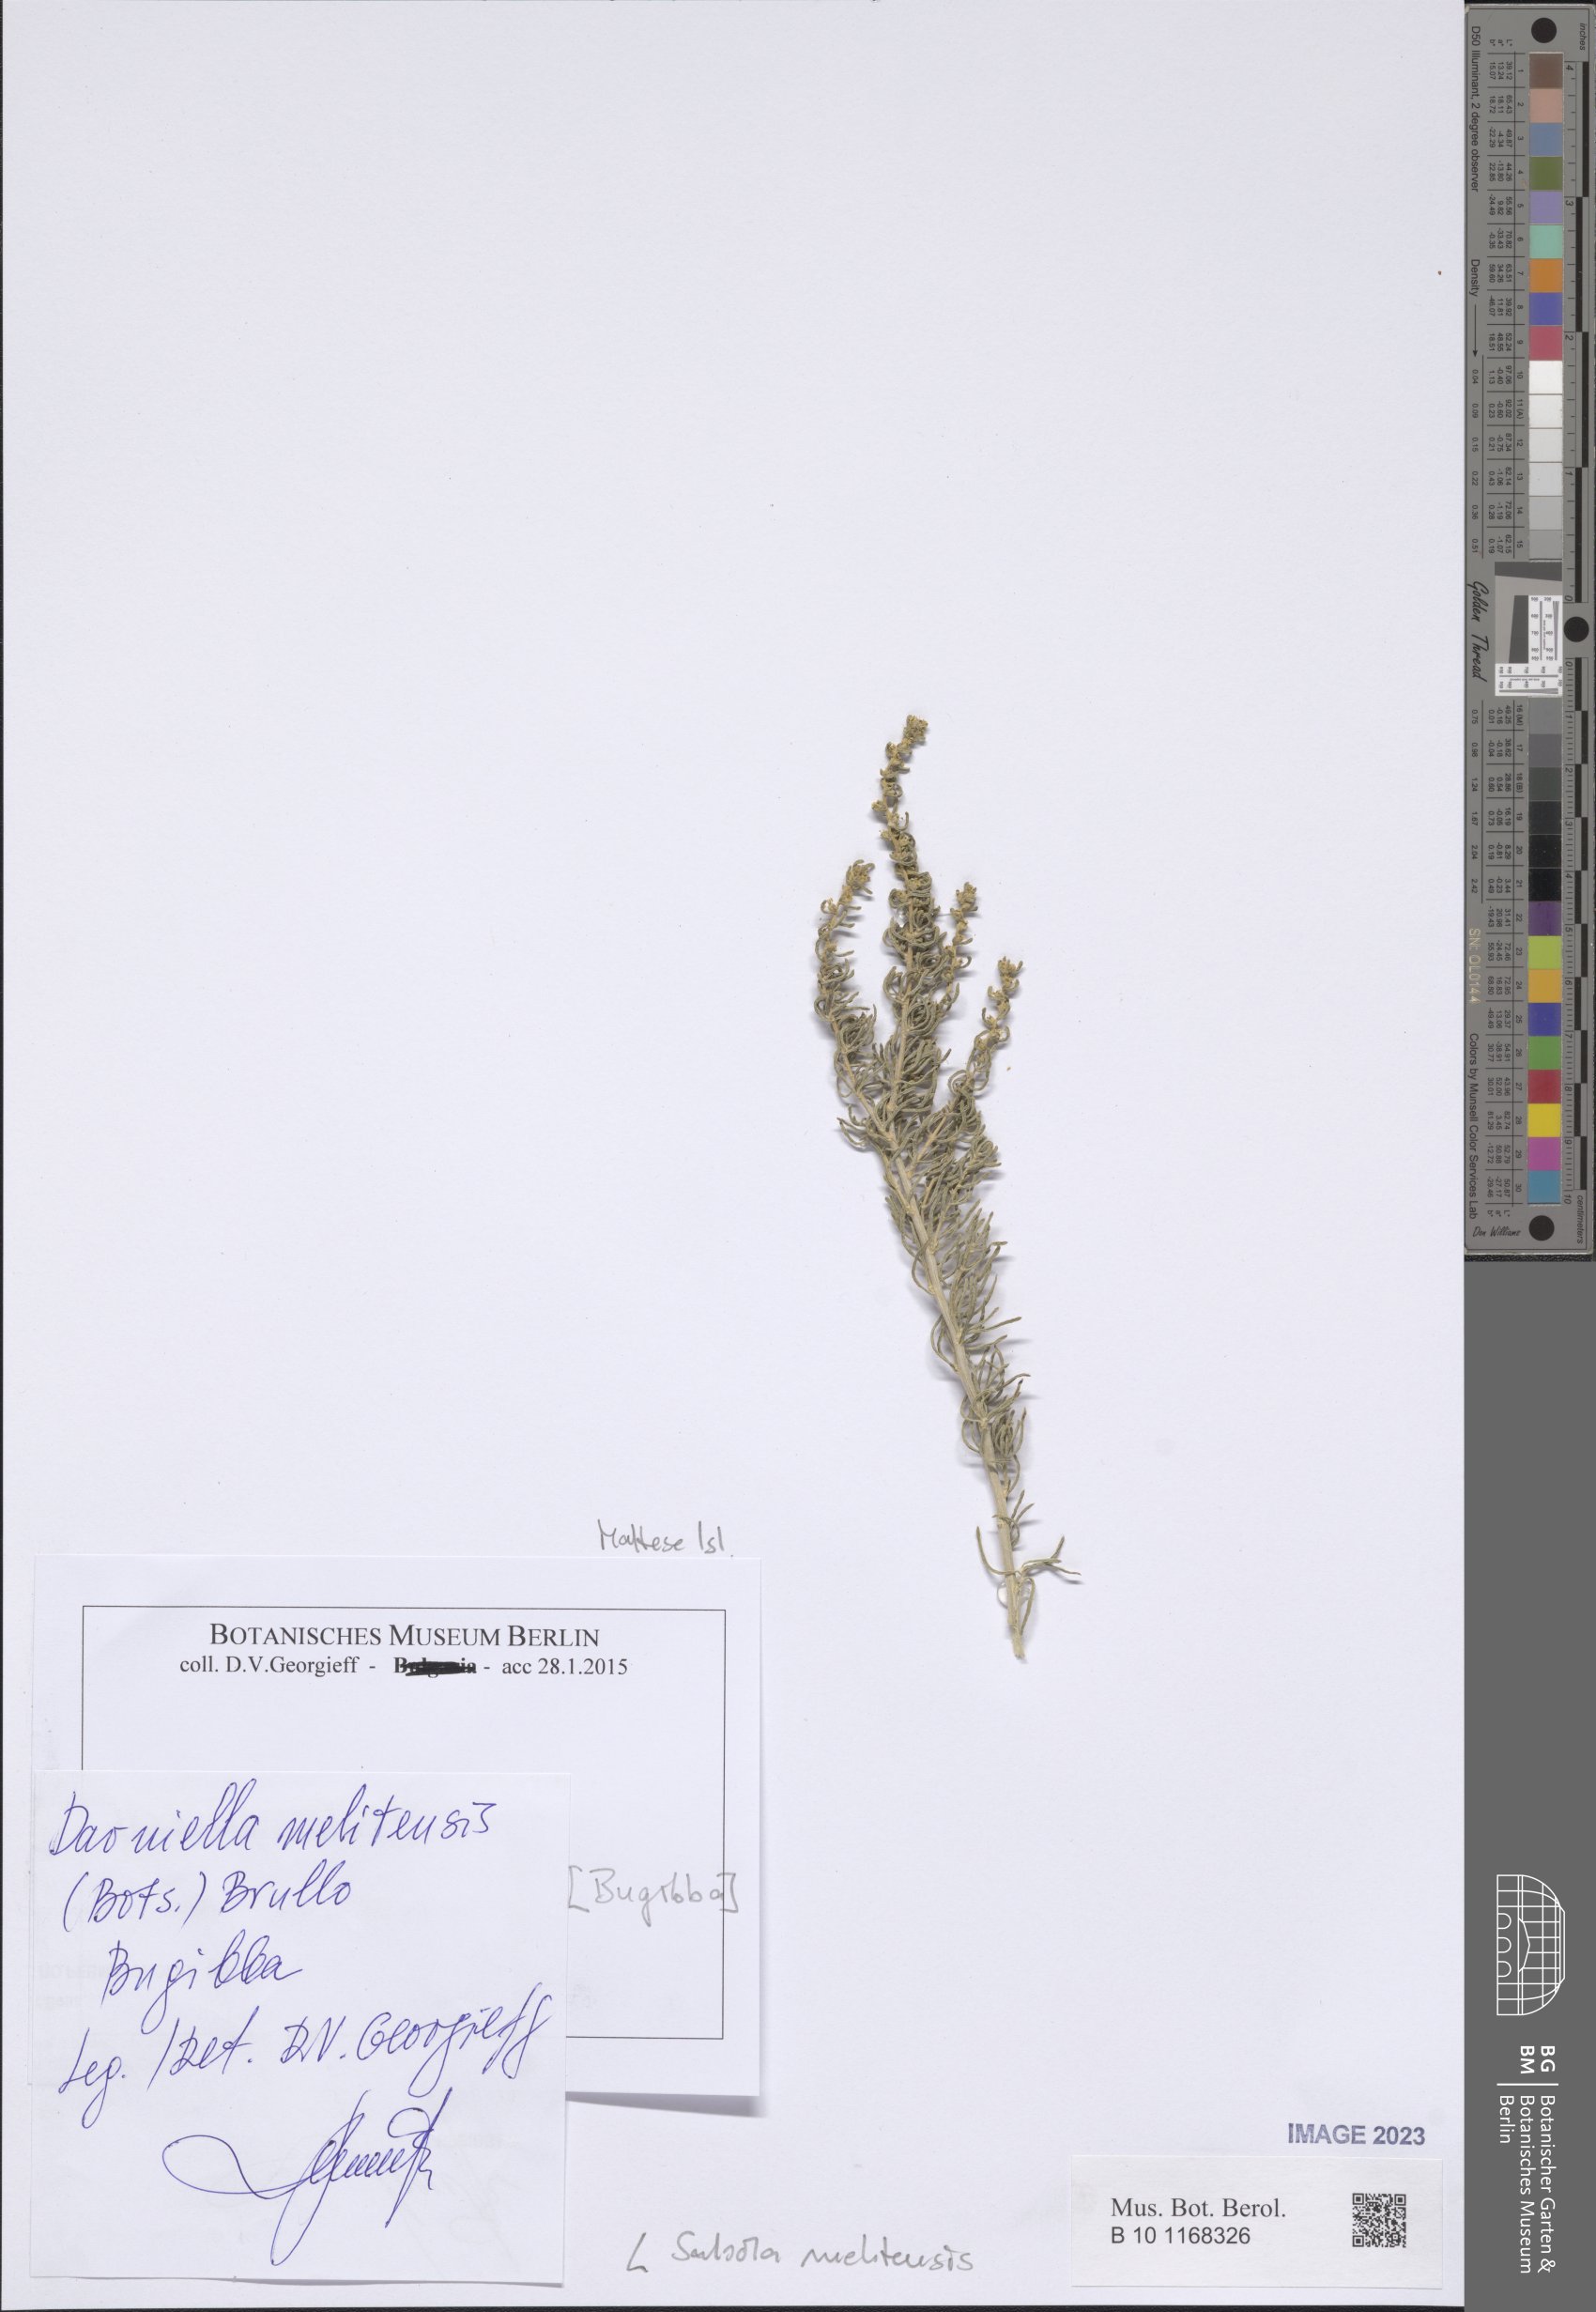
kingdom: Plantae
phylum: Tracheophyta
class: Magnoliopsida
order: Caryophyllales
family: Amaranthaceae
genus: Salsola
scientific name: Salsola melitensis
